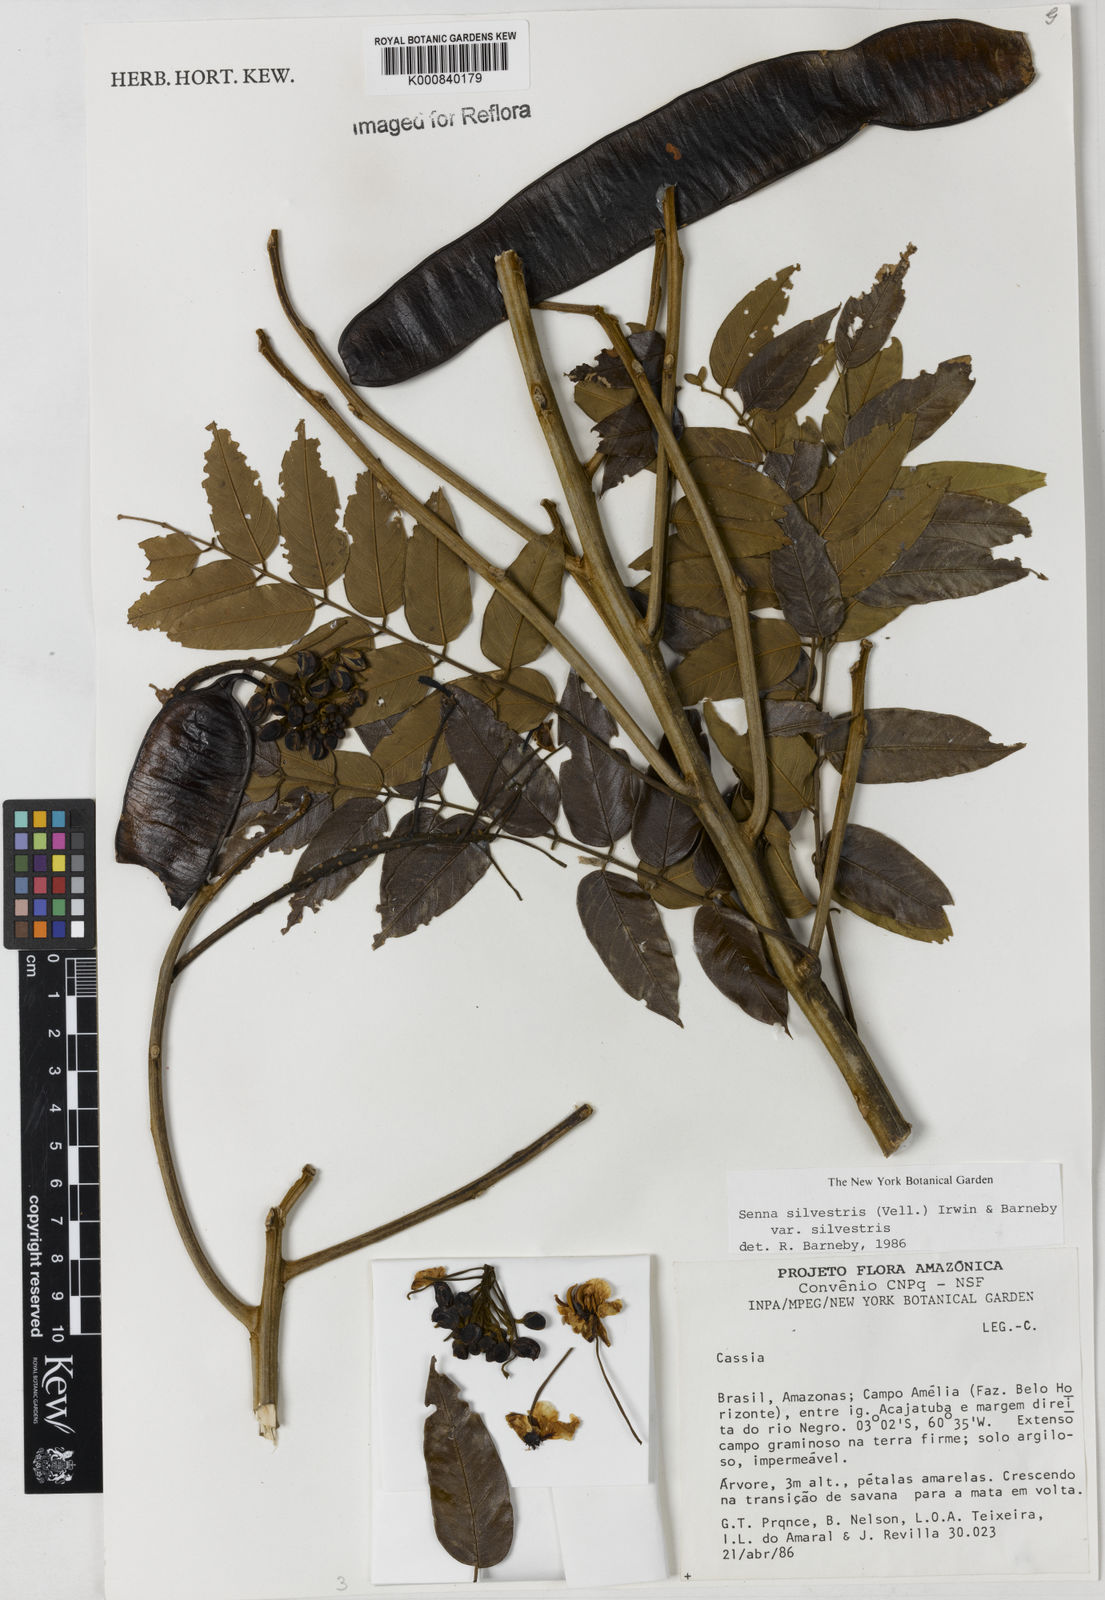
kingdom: Plantae
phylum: Tracheophyta
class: Magnoliopsida
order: Fabales
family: Fabaceae
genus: Senna
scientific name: Senna silvestris
